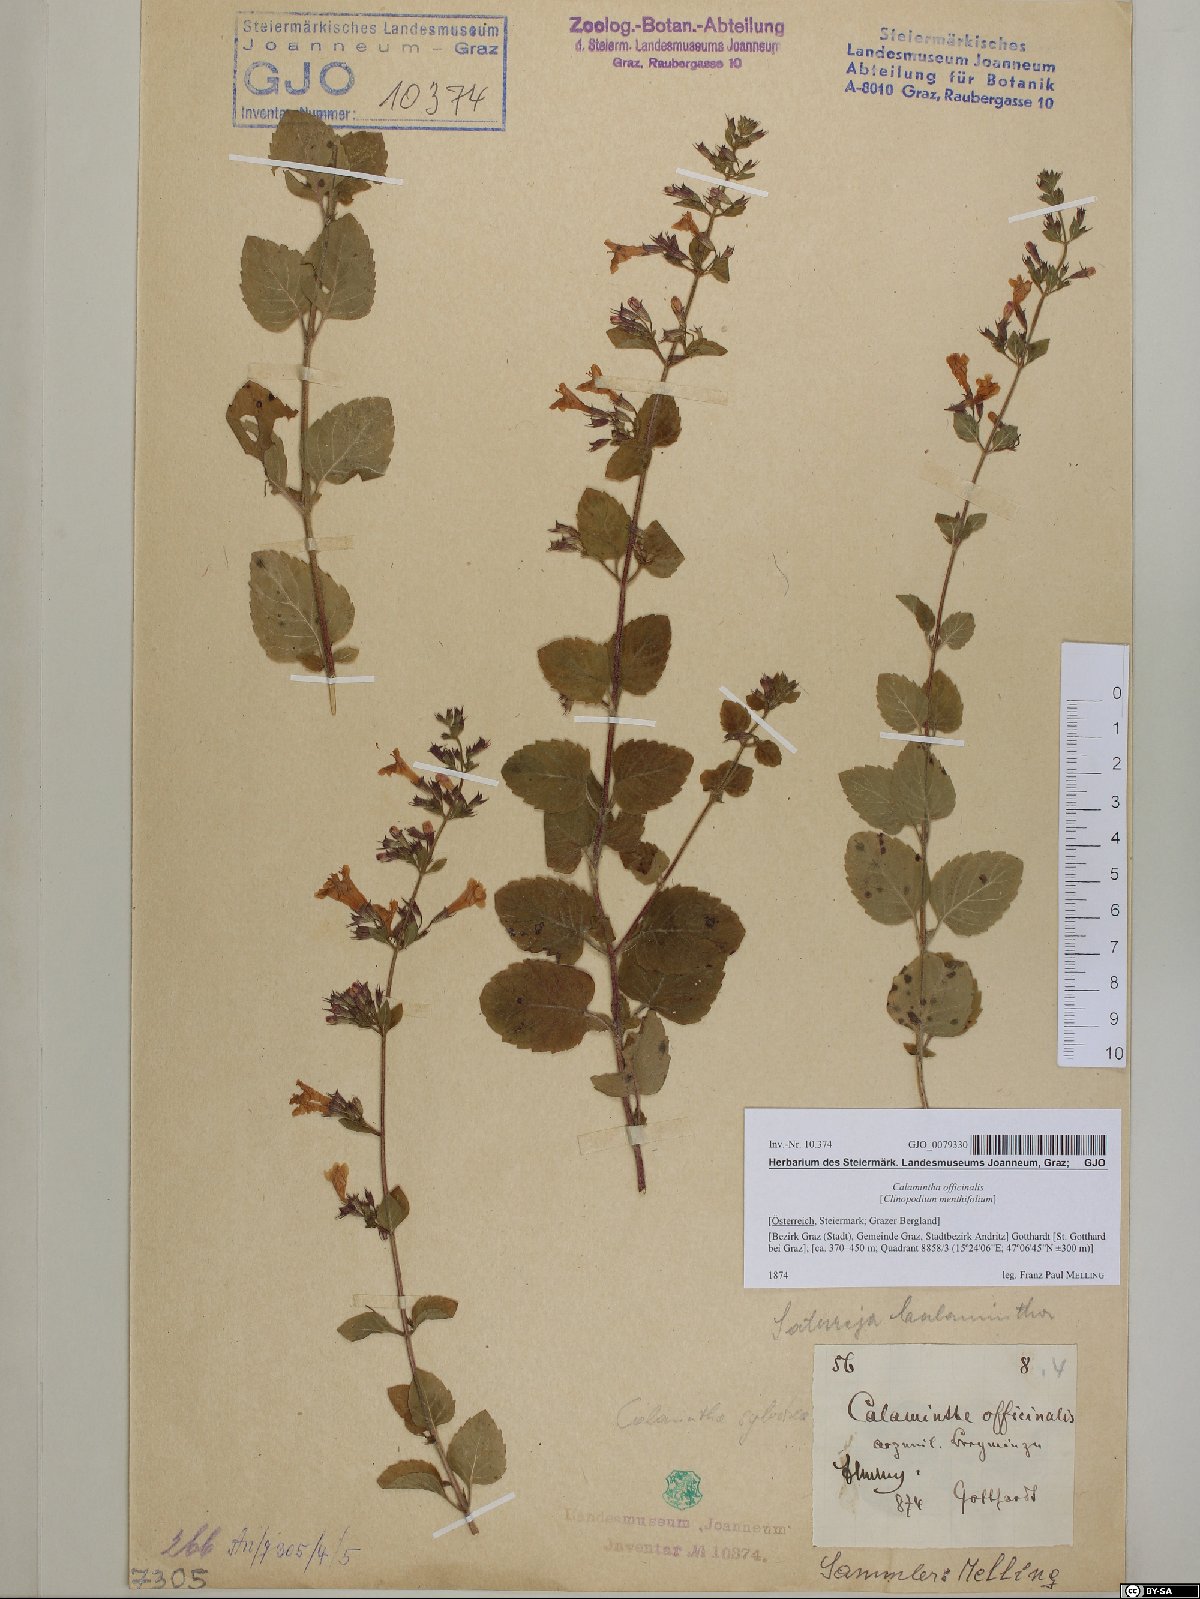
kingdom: Plantae
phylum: Tracheophyta
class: Magnoliopsida
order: Lamiales
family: Lamiaceae
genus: Clinopodium
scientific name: Clinopodium nepeta
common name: Lesser calamint
